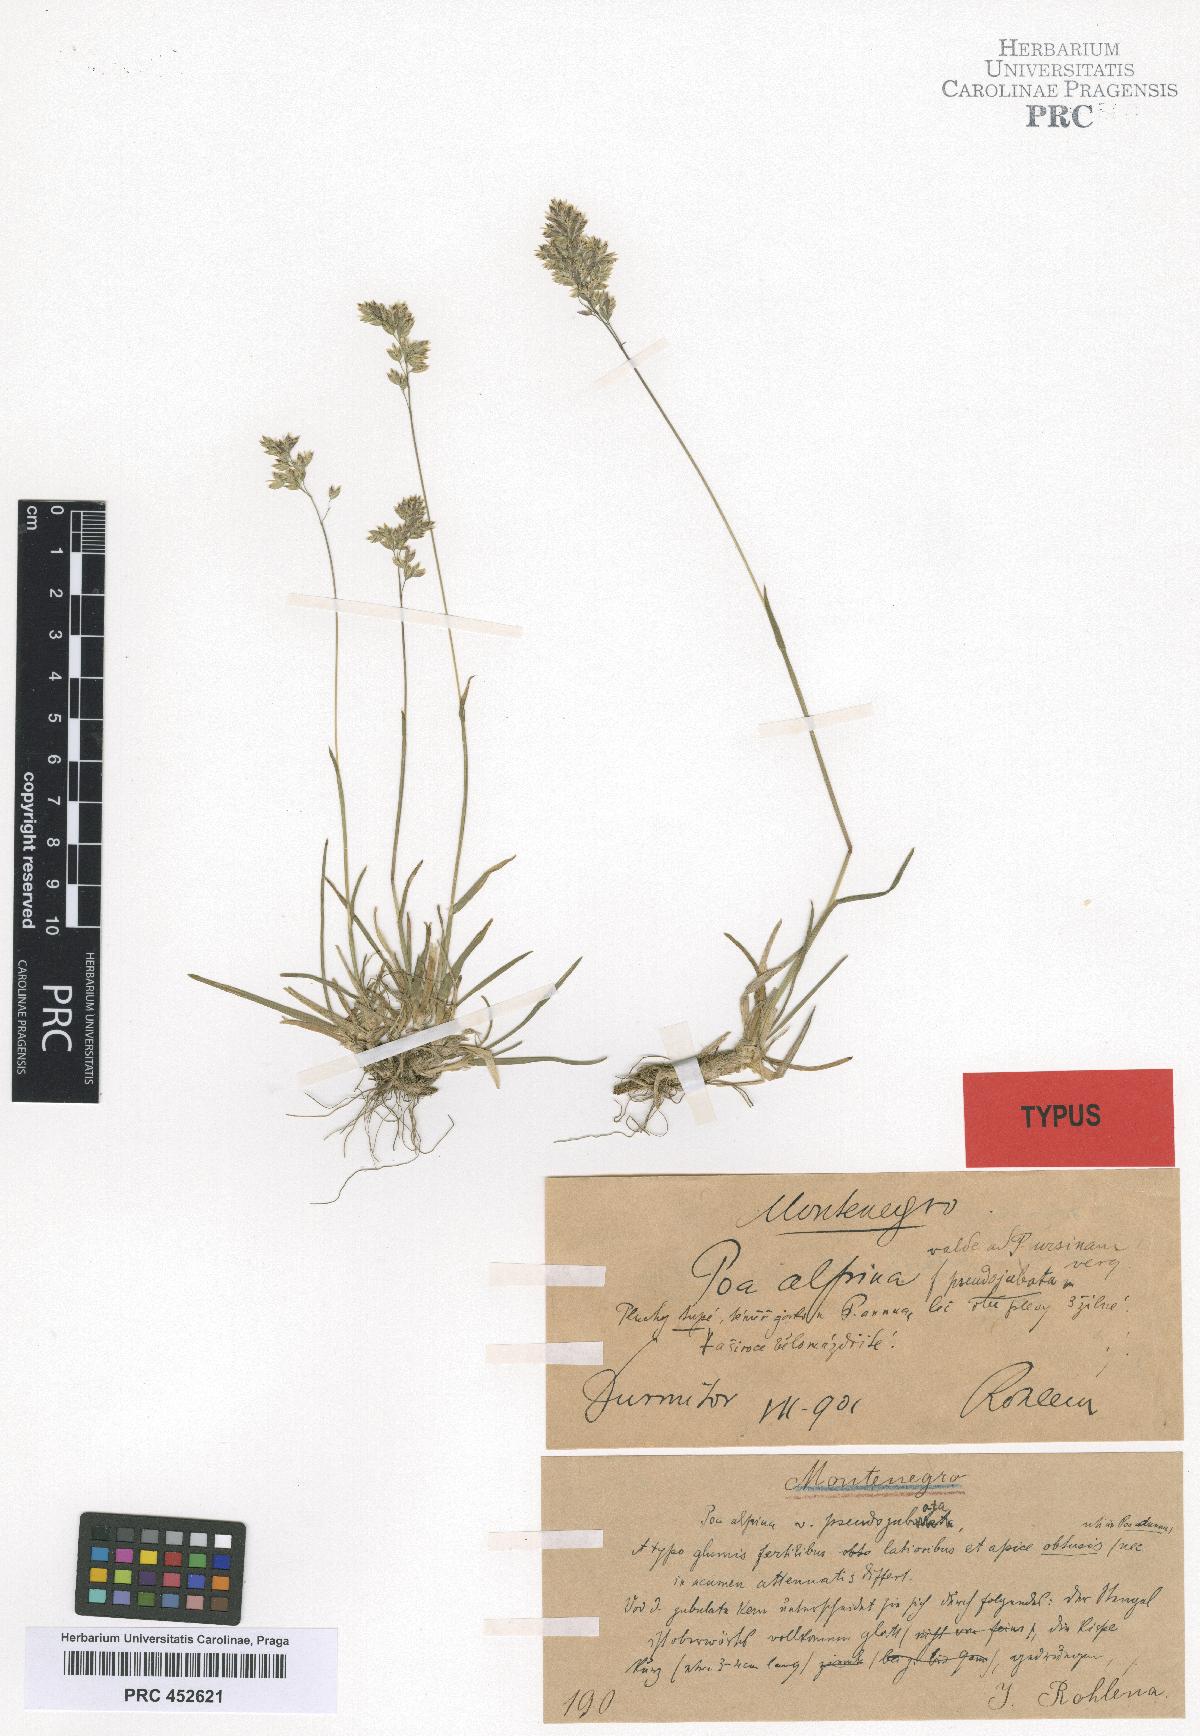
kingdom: Plantae
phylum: Tracheophyta
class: Liliopsida
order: Poales
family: Poaceae
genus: Poa
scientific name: Poa alpina
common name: Alpine bluegrass
